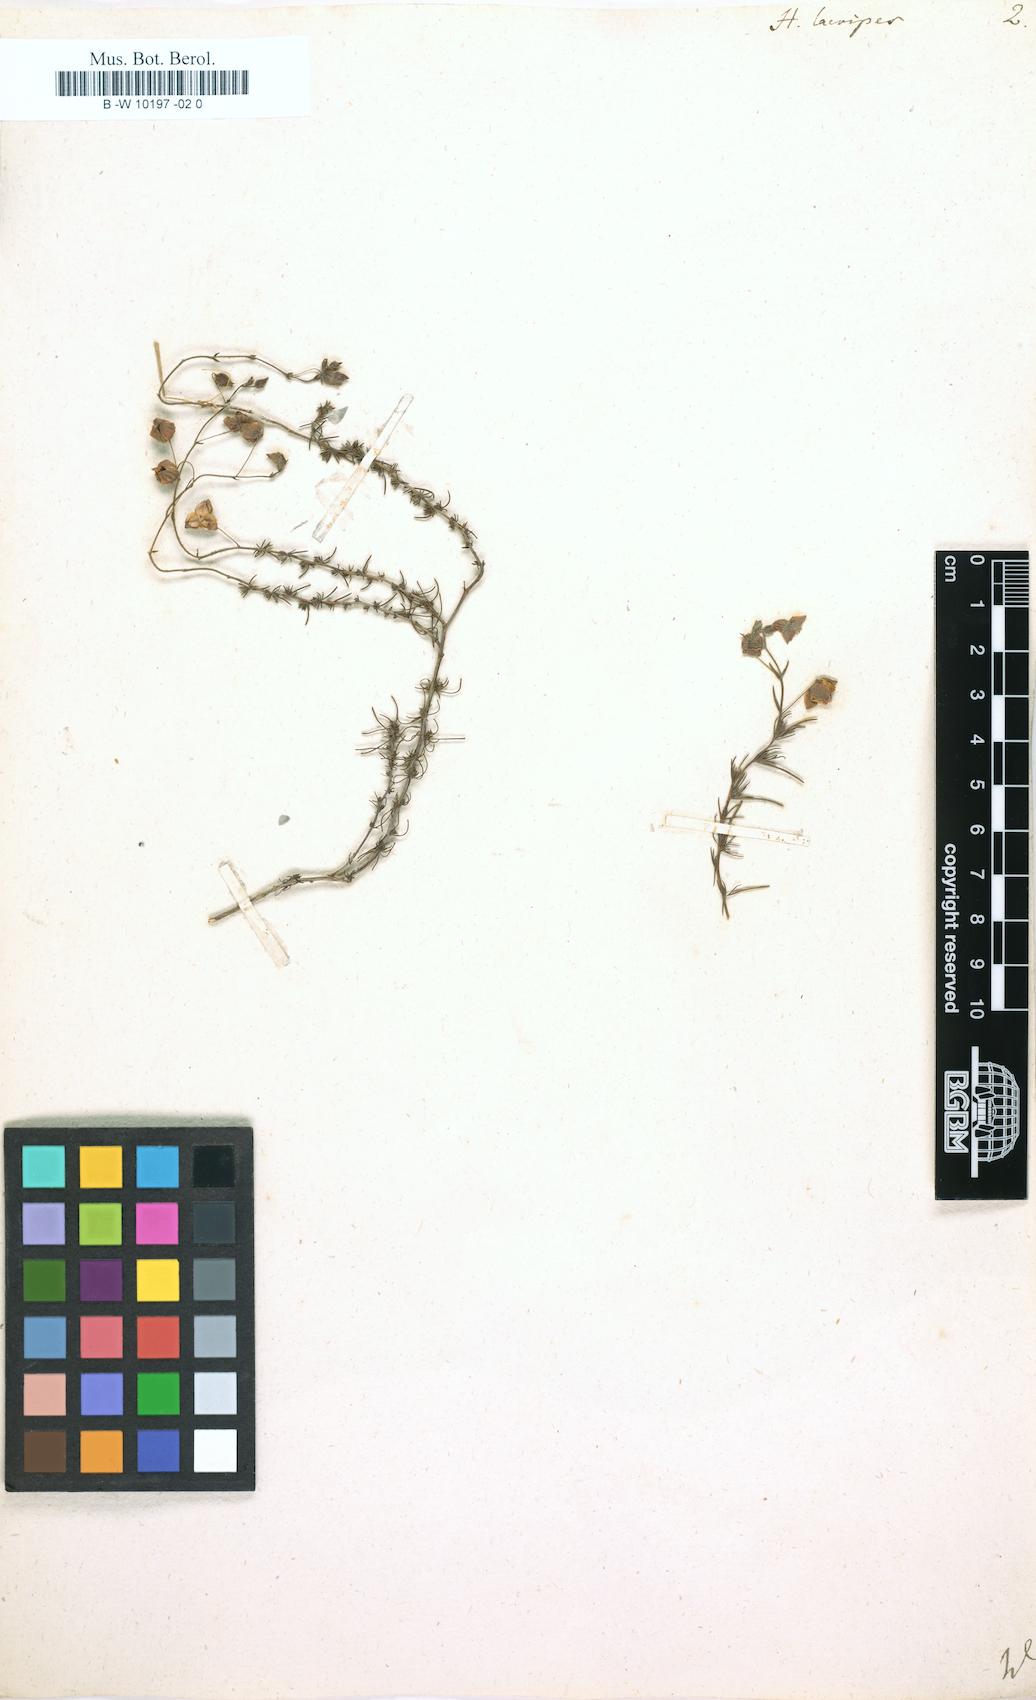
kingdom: Plantae
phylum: Tracheophyta
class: Magnoliopsida
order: Malvales
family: Cistaceae
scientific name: Cistaceae
